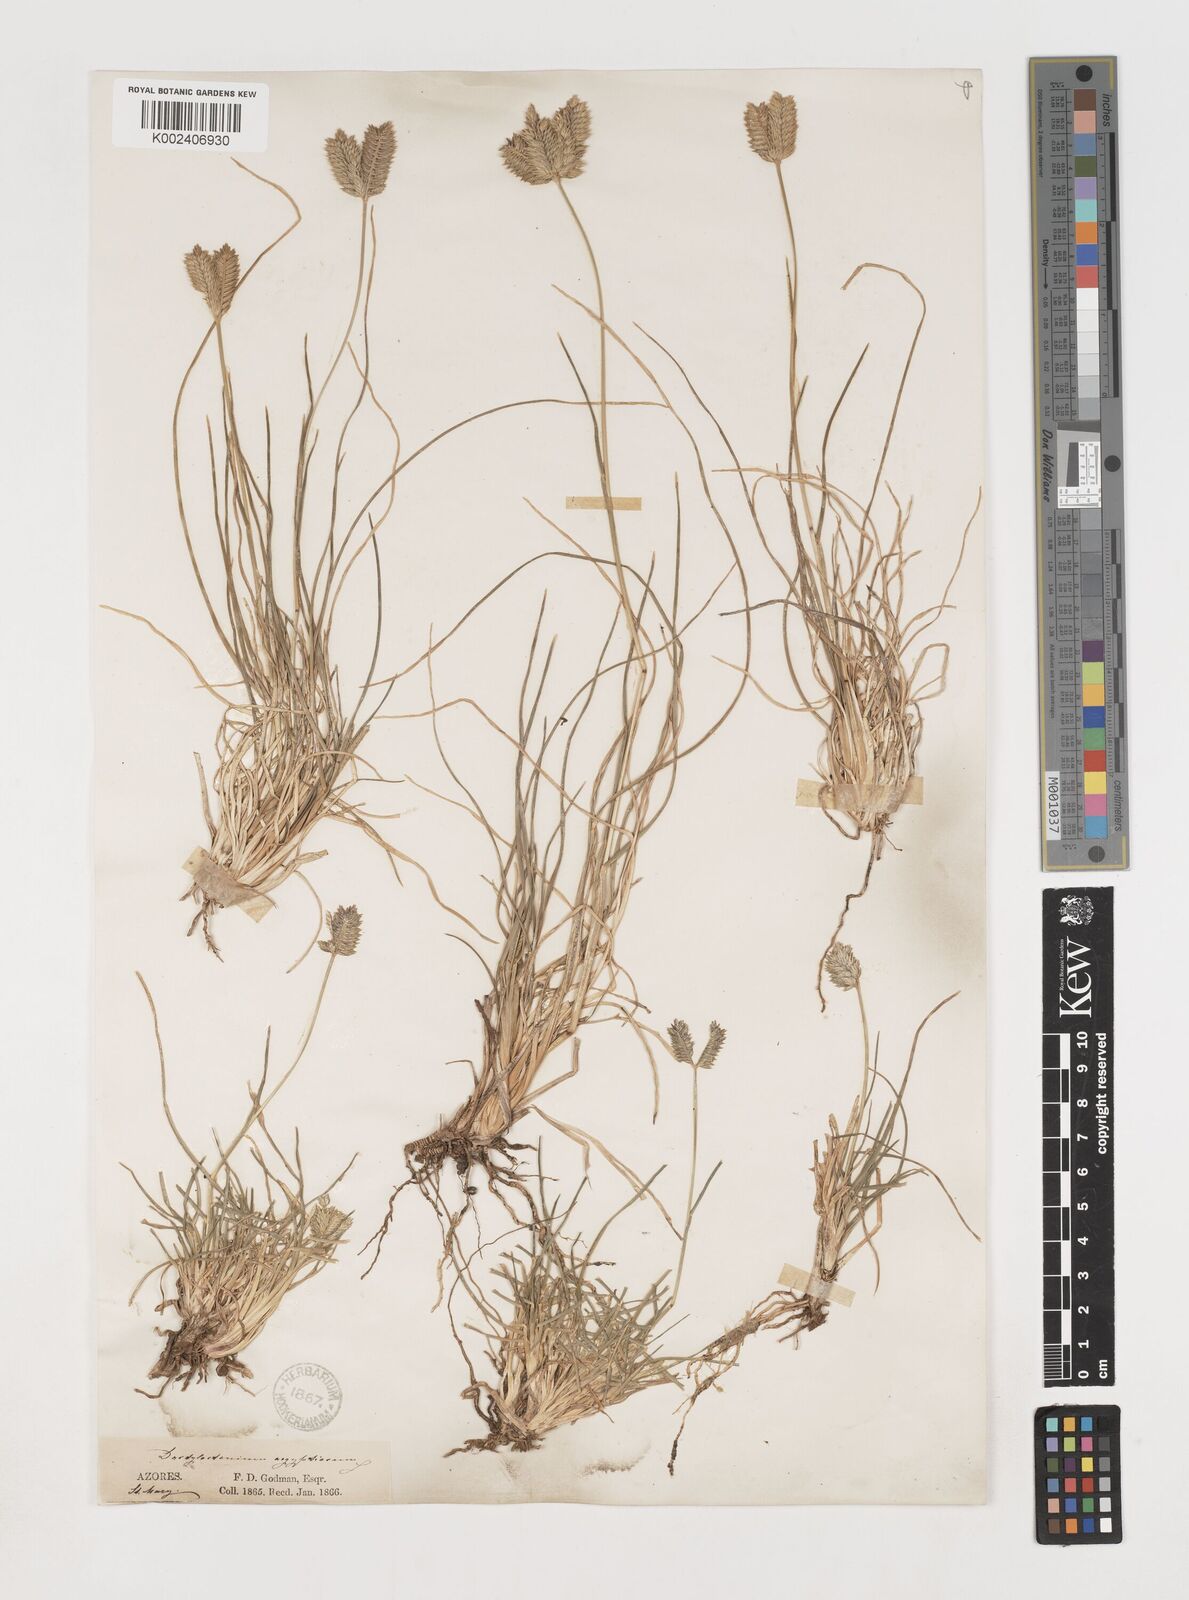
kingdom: Plantae
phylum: Tracheophyta
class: Liliopsida
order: Poales
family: Poaceae
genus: Eleusine
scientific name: Eleusine tristachya
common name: American yard-grass
